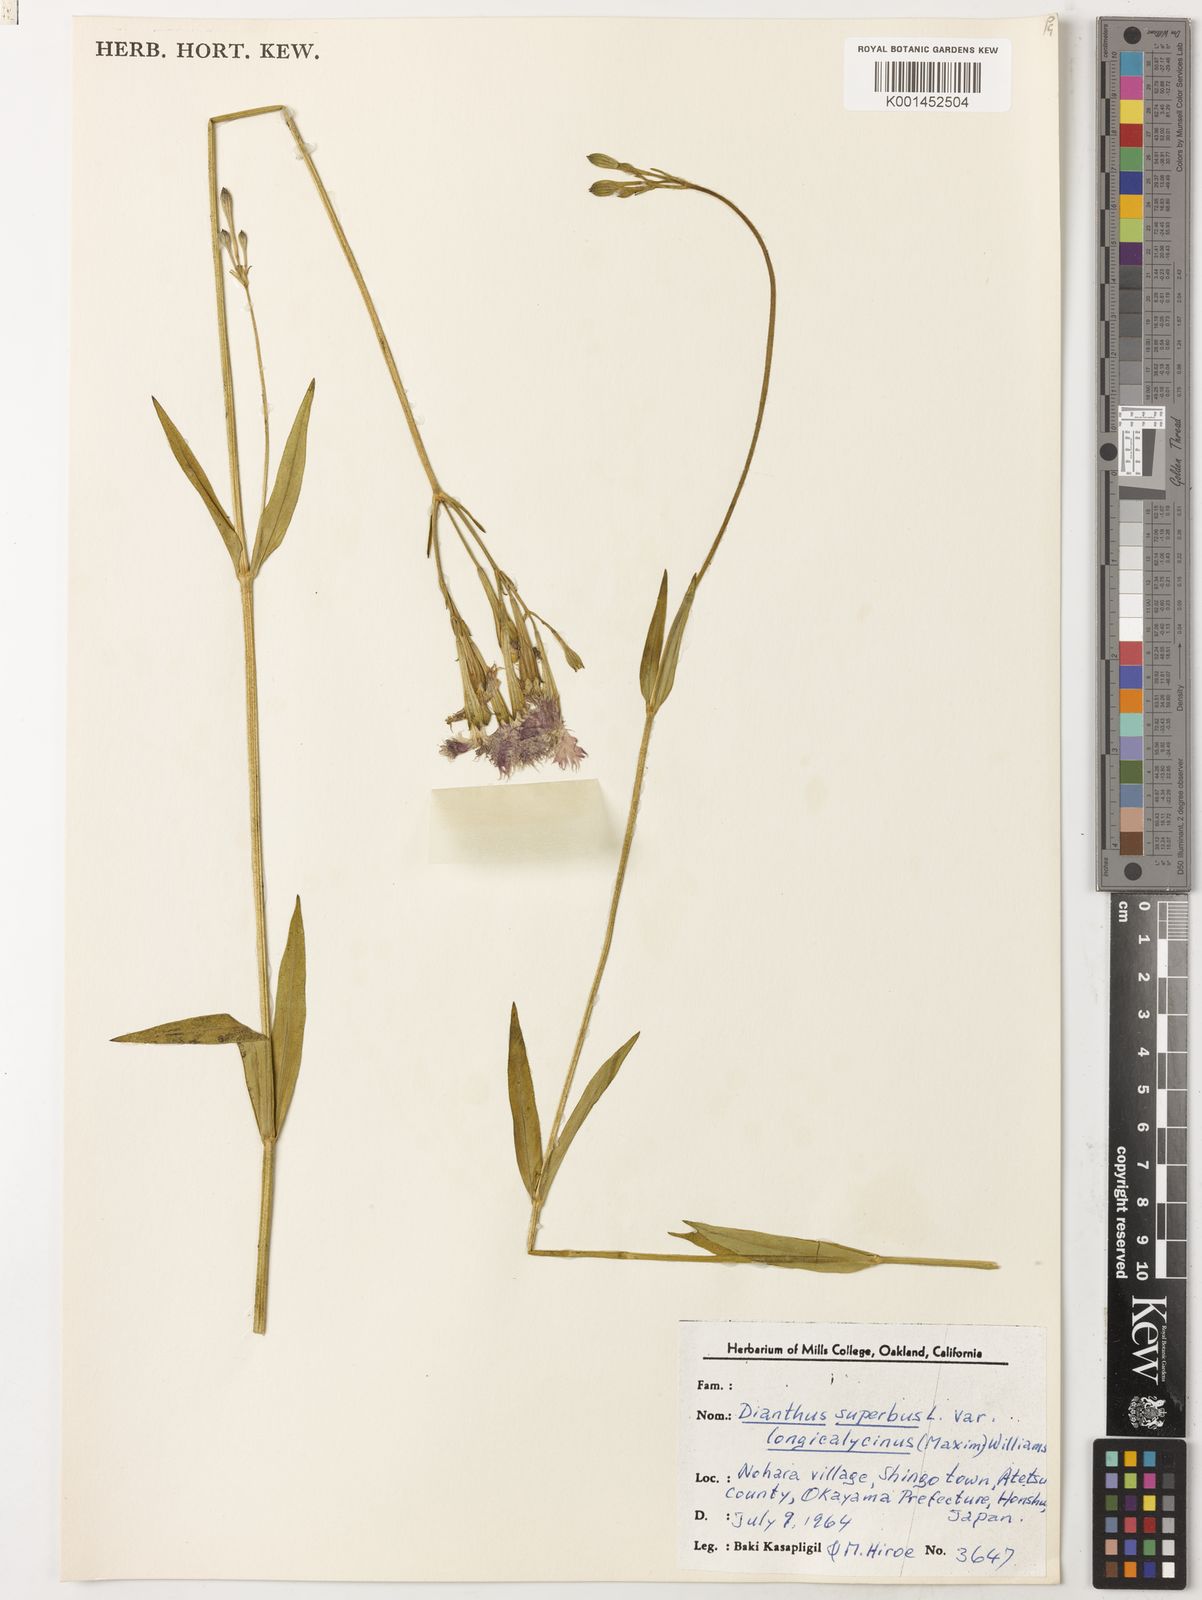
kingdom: Plantae
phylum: Tracheophyta
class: Magnoliopsida
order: Caryophyllales
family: Caryophyllaceae
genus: Dianthus
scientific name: Dianthus superbus
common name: Fringed pink
